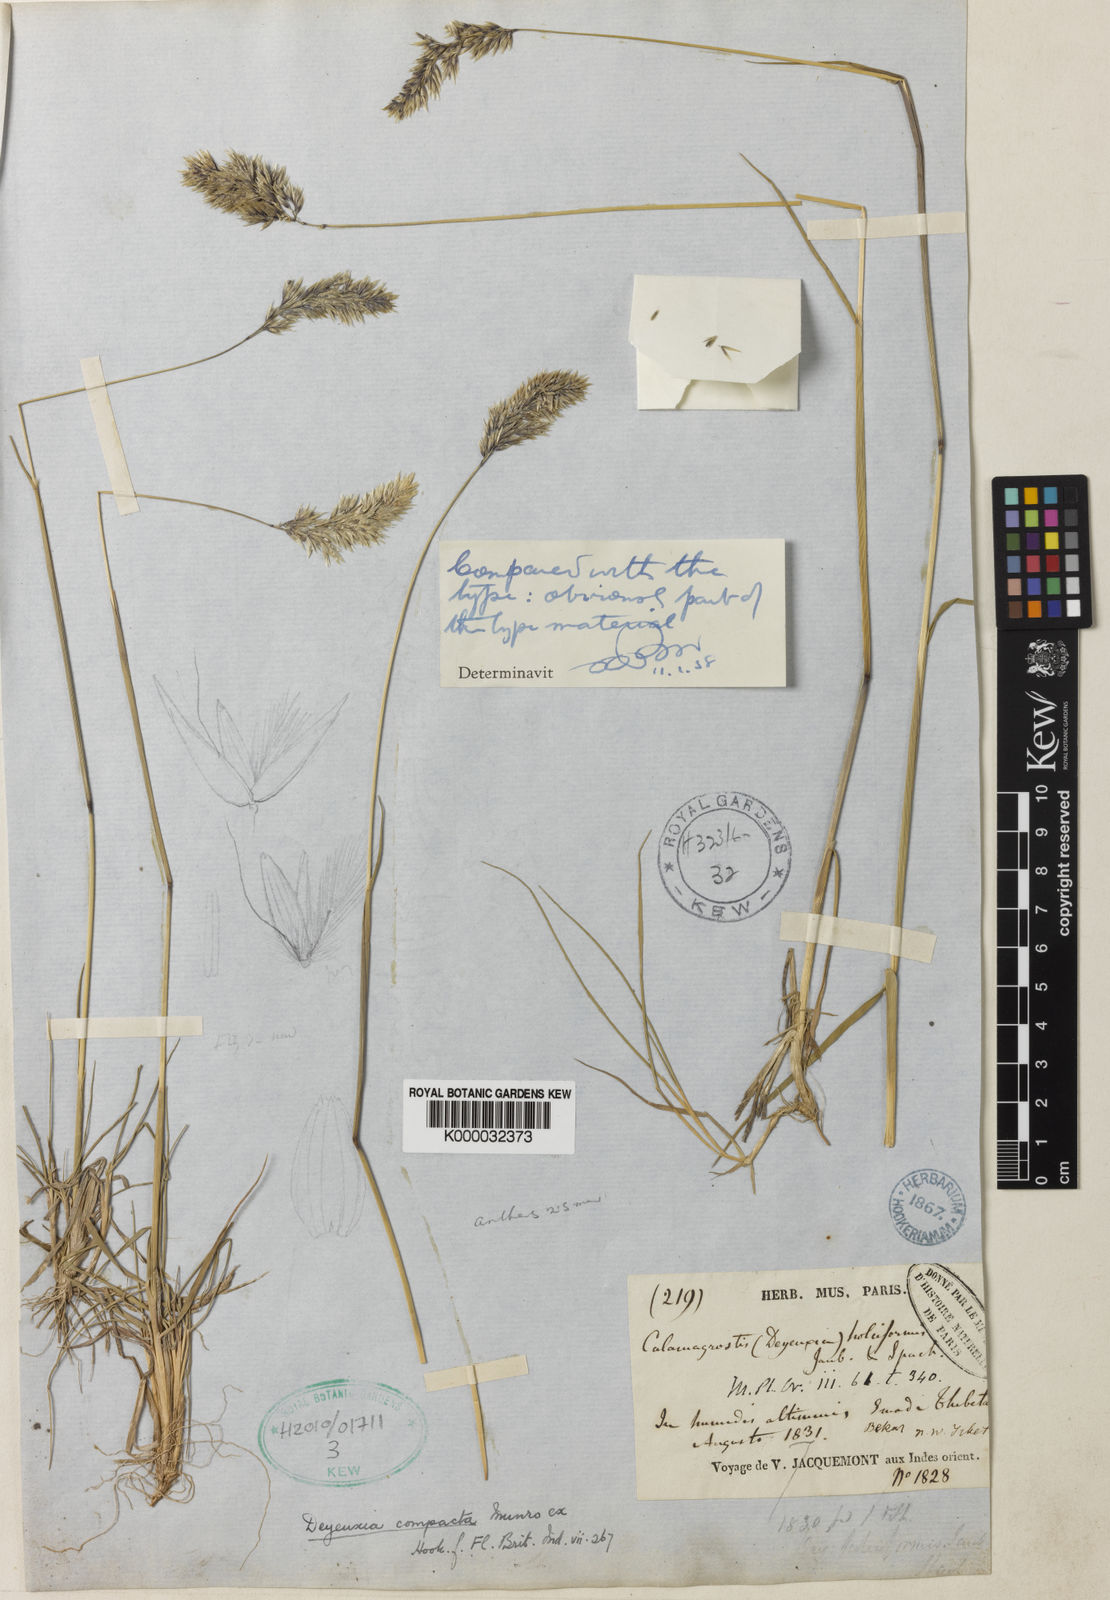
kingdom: Plantae
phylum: Tracheophyta
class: Liliopsida
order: Poales
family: Poaceae
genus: Calamagrostis
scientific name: Calamagrostis holciformis
